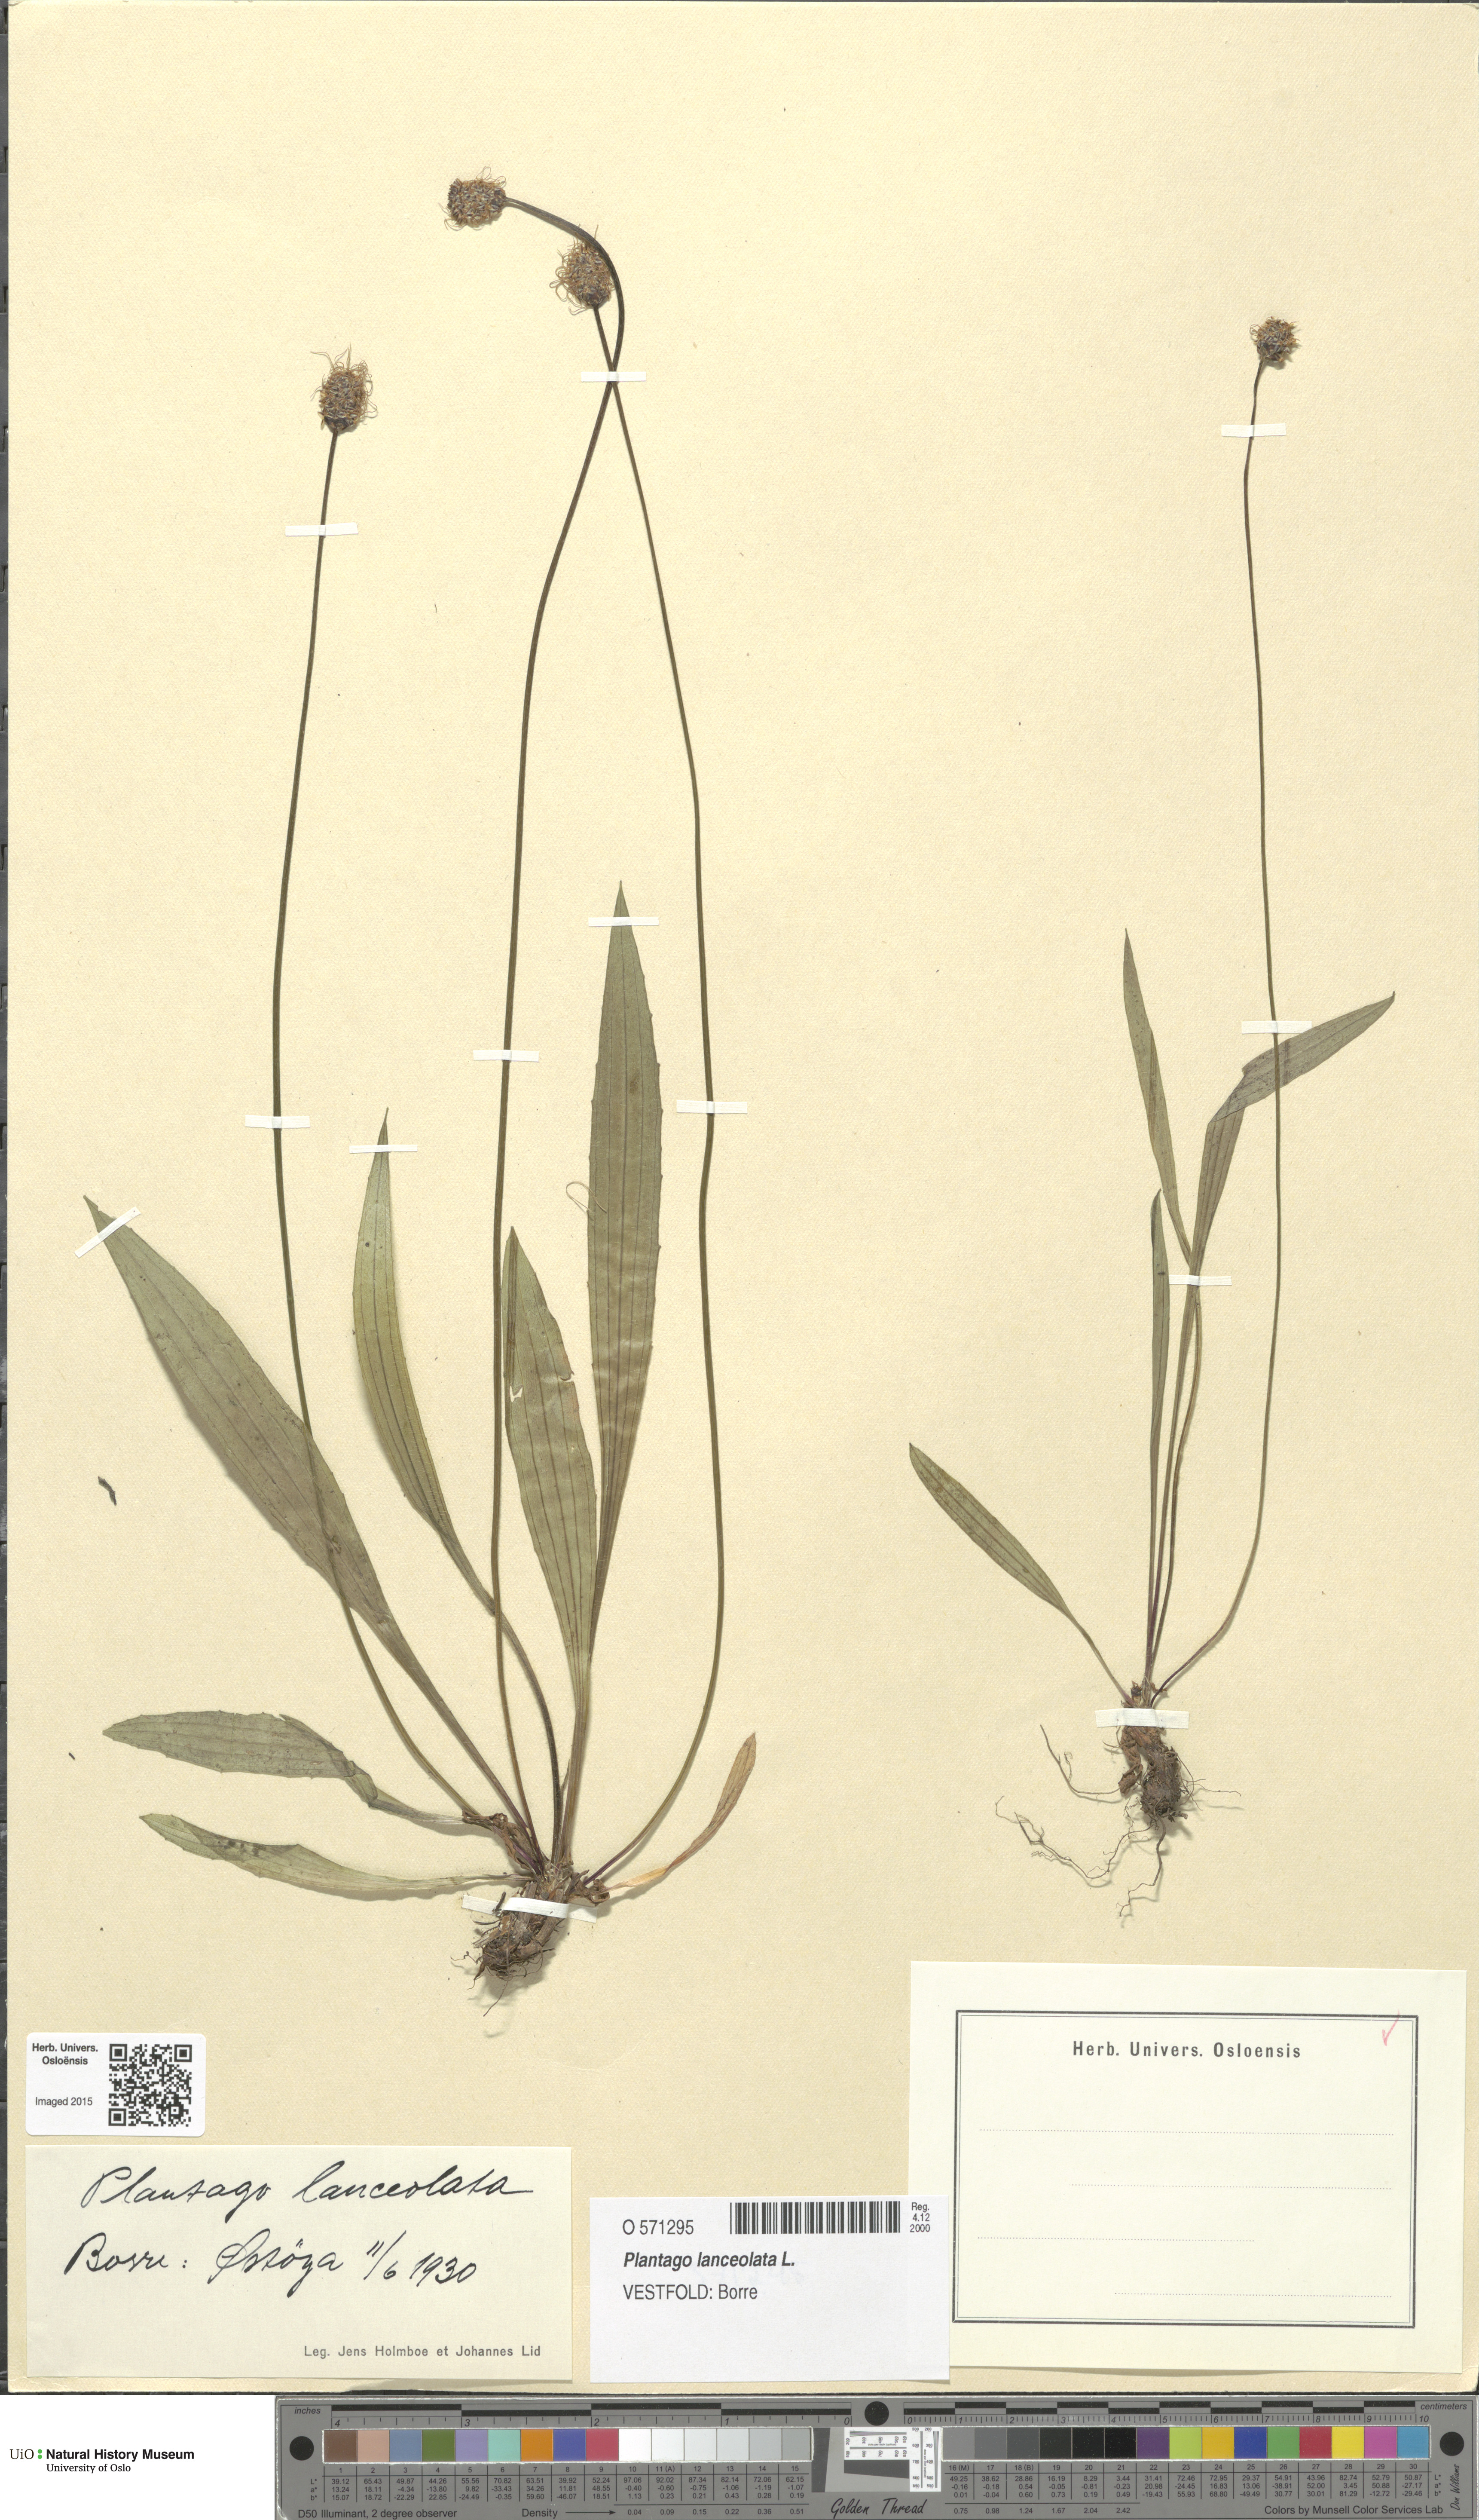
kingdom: Plantae
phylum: Tracheophyta
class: Magnoliopsida
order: Lamiales
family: Plantaginaceae
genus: Plantago
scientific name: Plantago lanceolata
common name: Ribwort plantain
